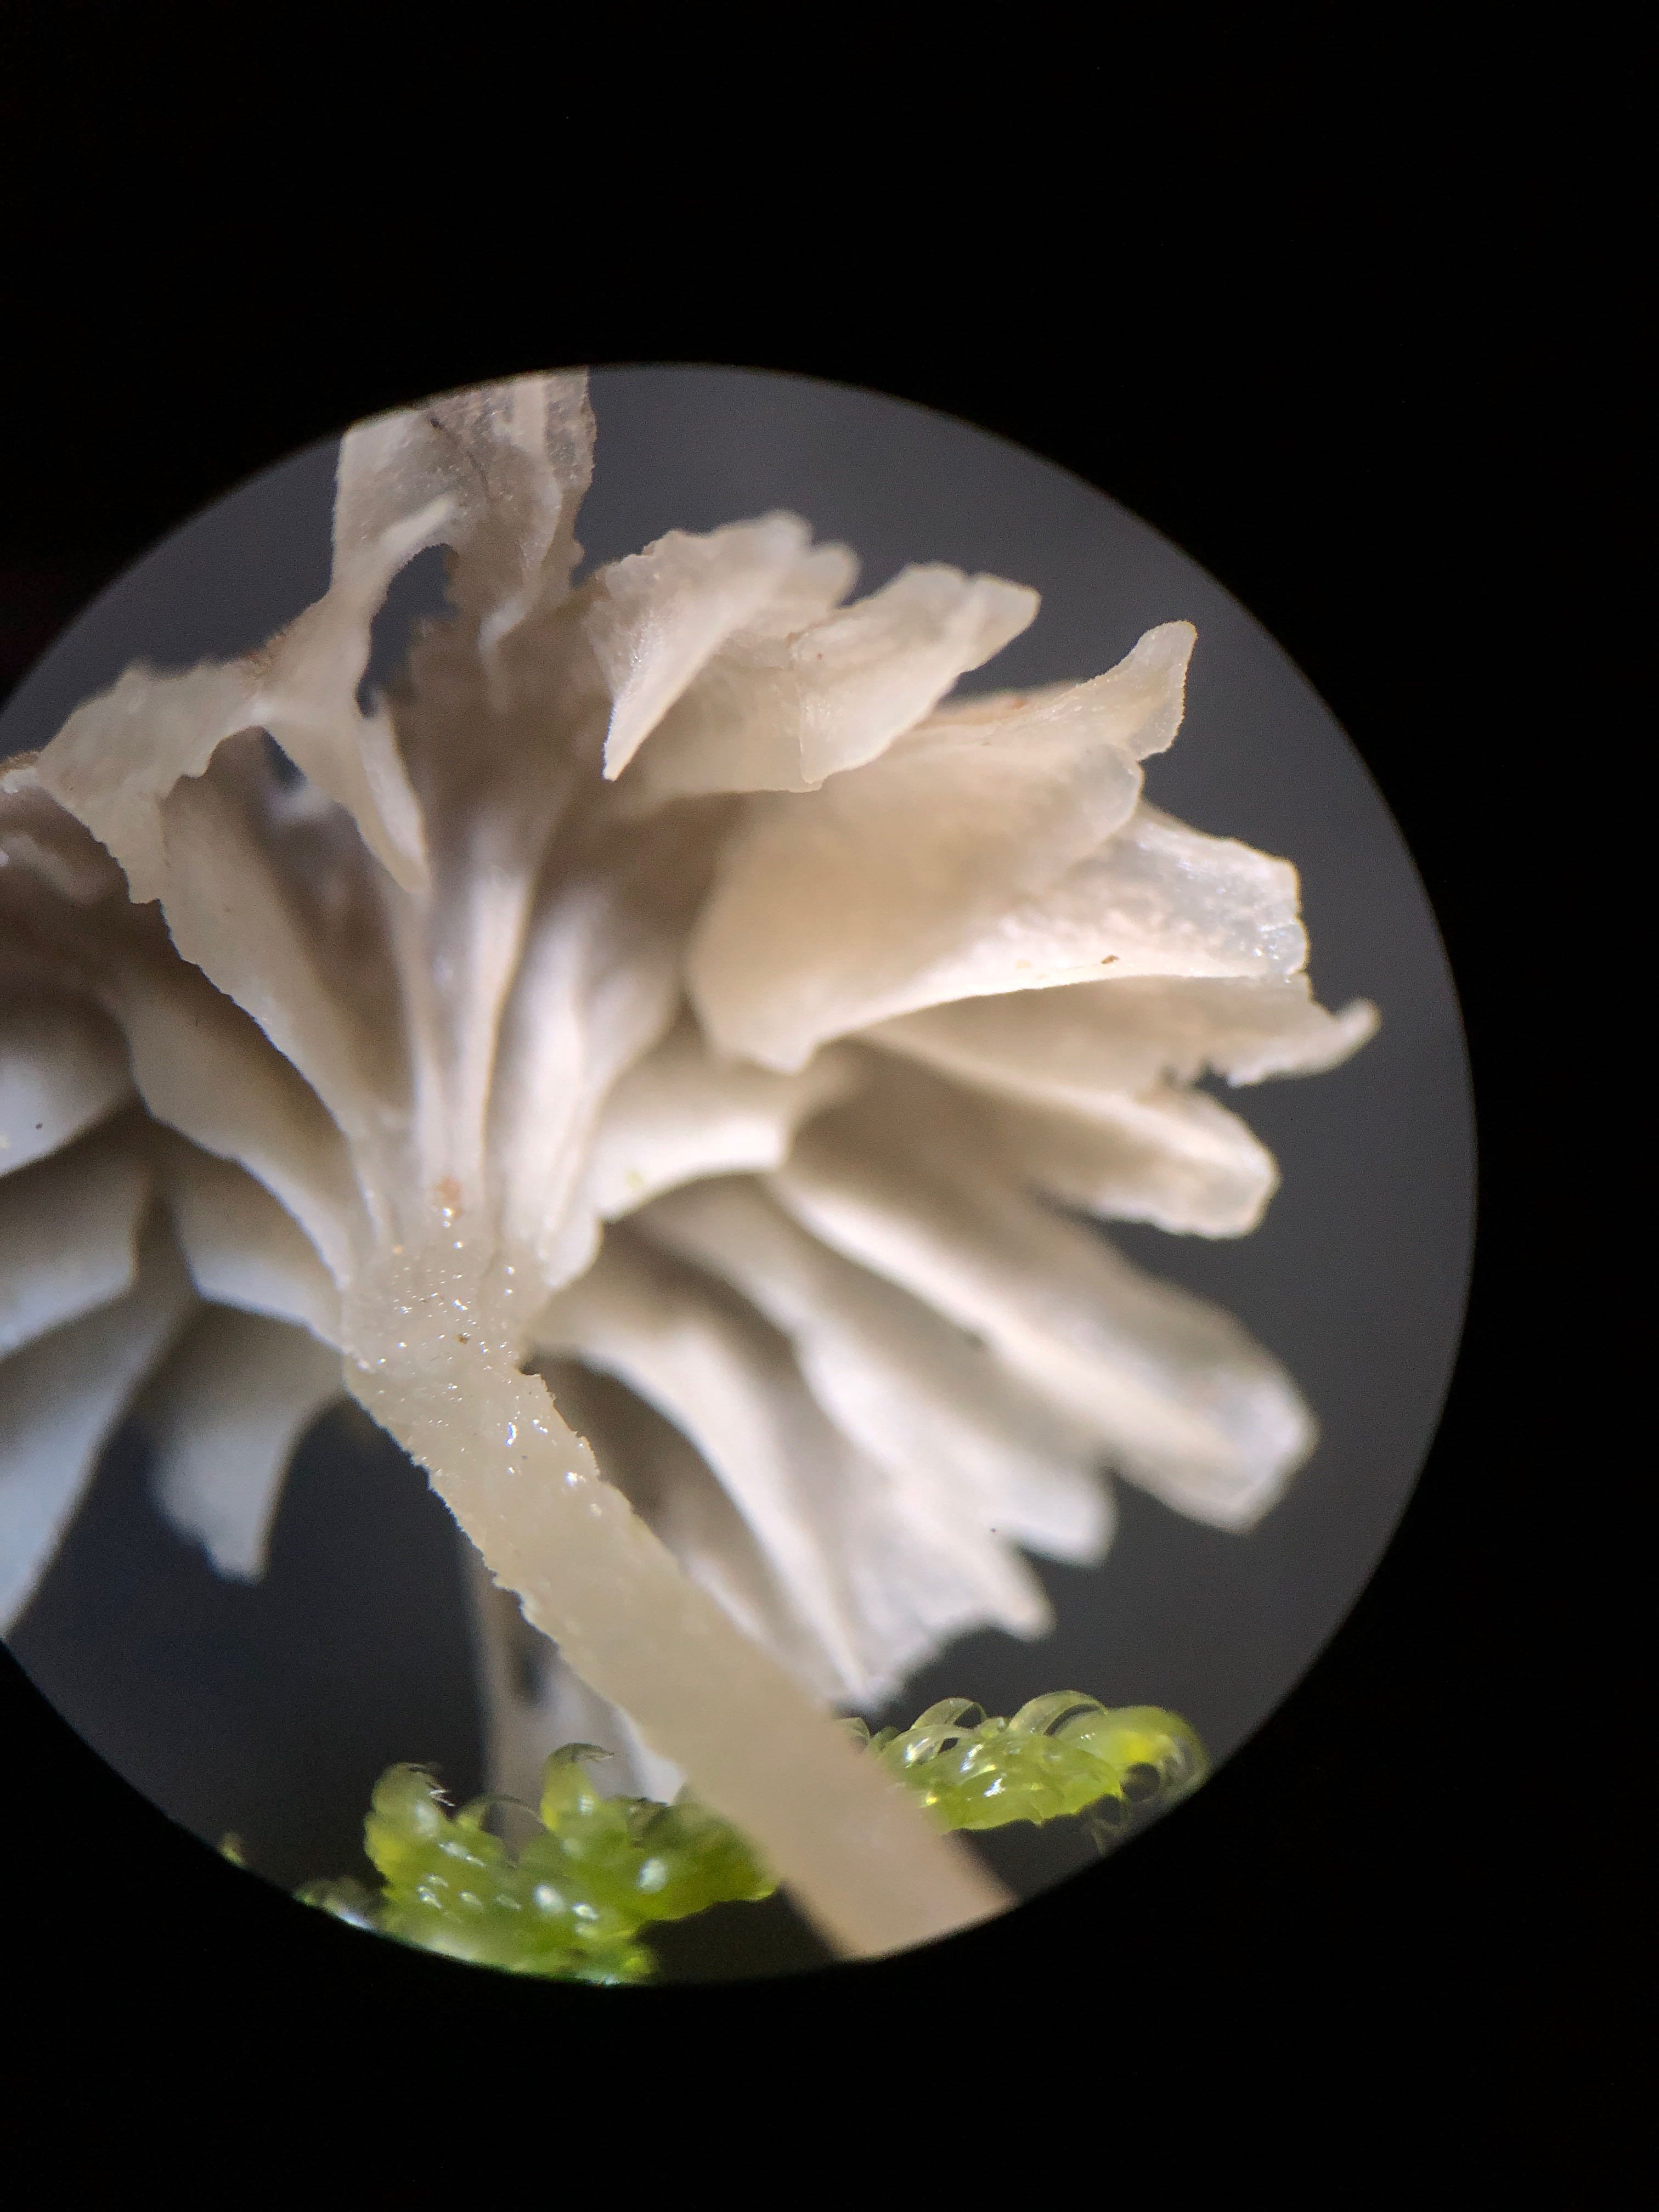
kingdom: Fungi
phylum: Basidiomycota
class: Agaricomycetes
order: Agaricales
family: Porotheleaceae
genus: Phloeomana
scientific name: Phloeomana speirea
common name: kvist-huesvamp
